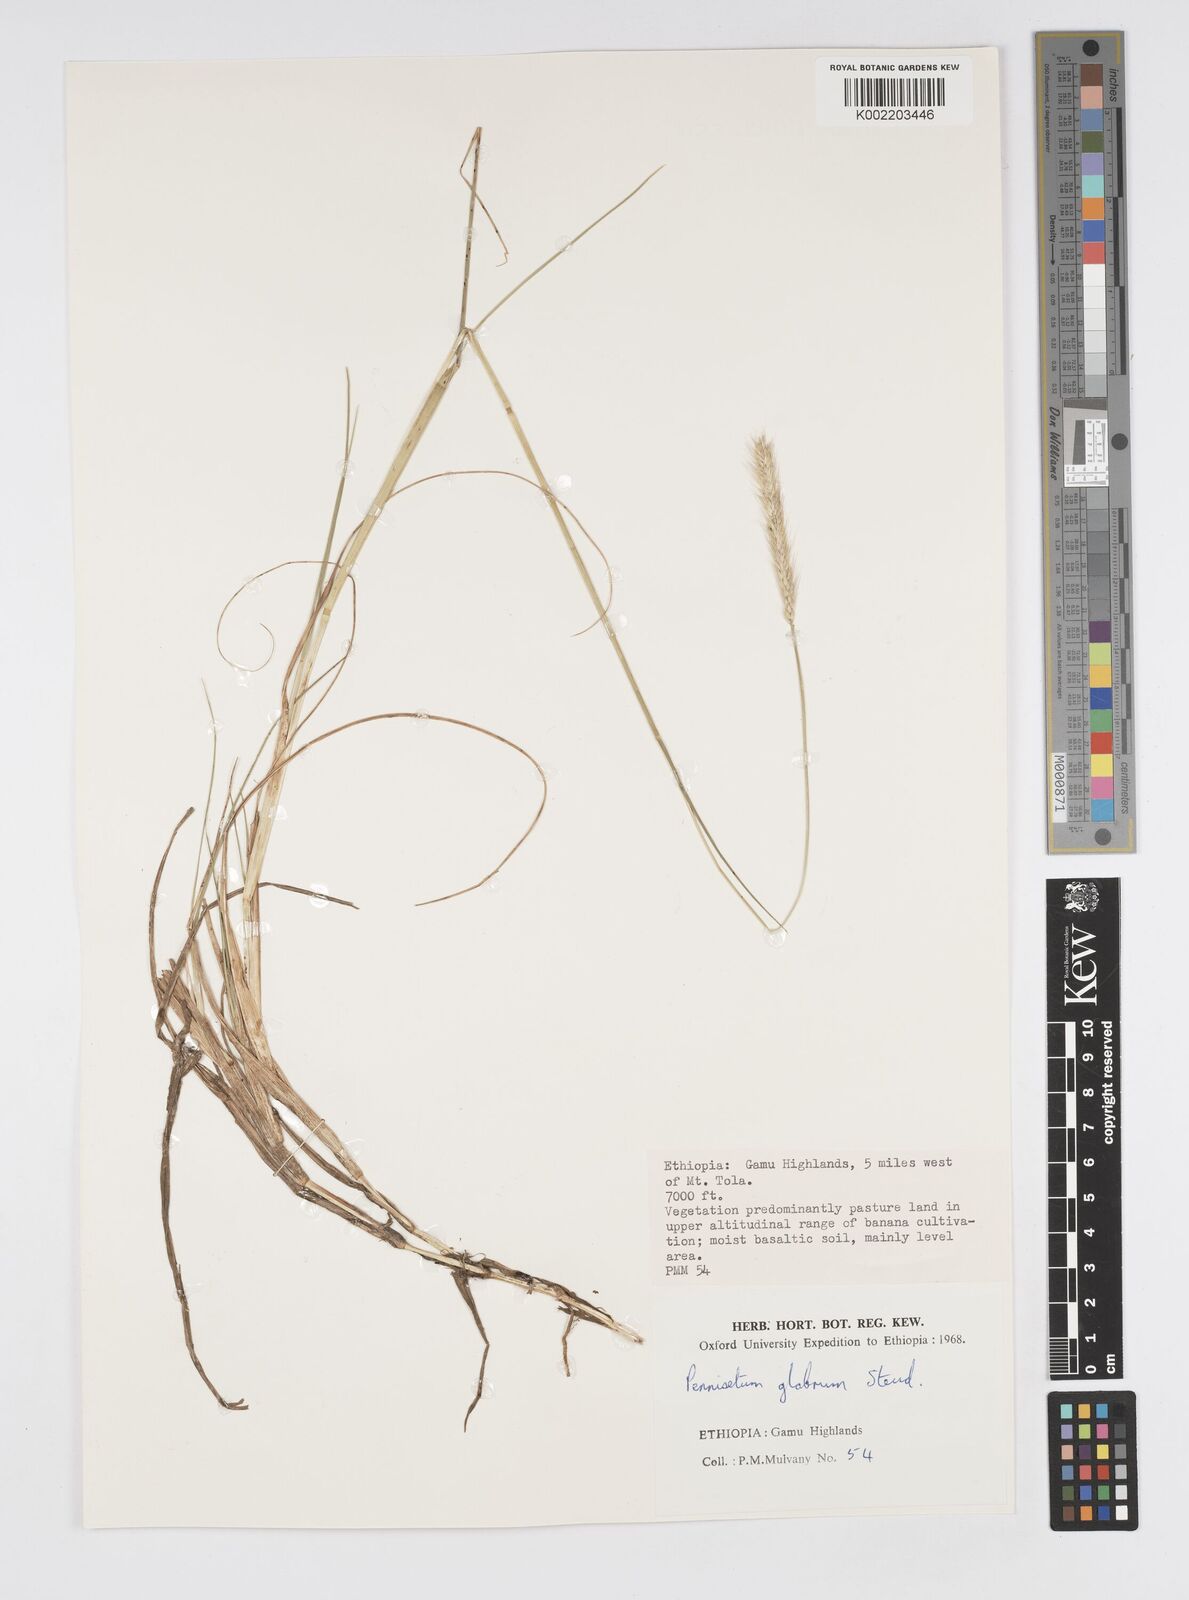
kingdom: Plantae
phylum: Tracheophyta
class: Liliopsida
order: Poales
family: Poaceae
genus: Cenchrus
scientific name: Cenchrus geniculatus
